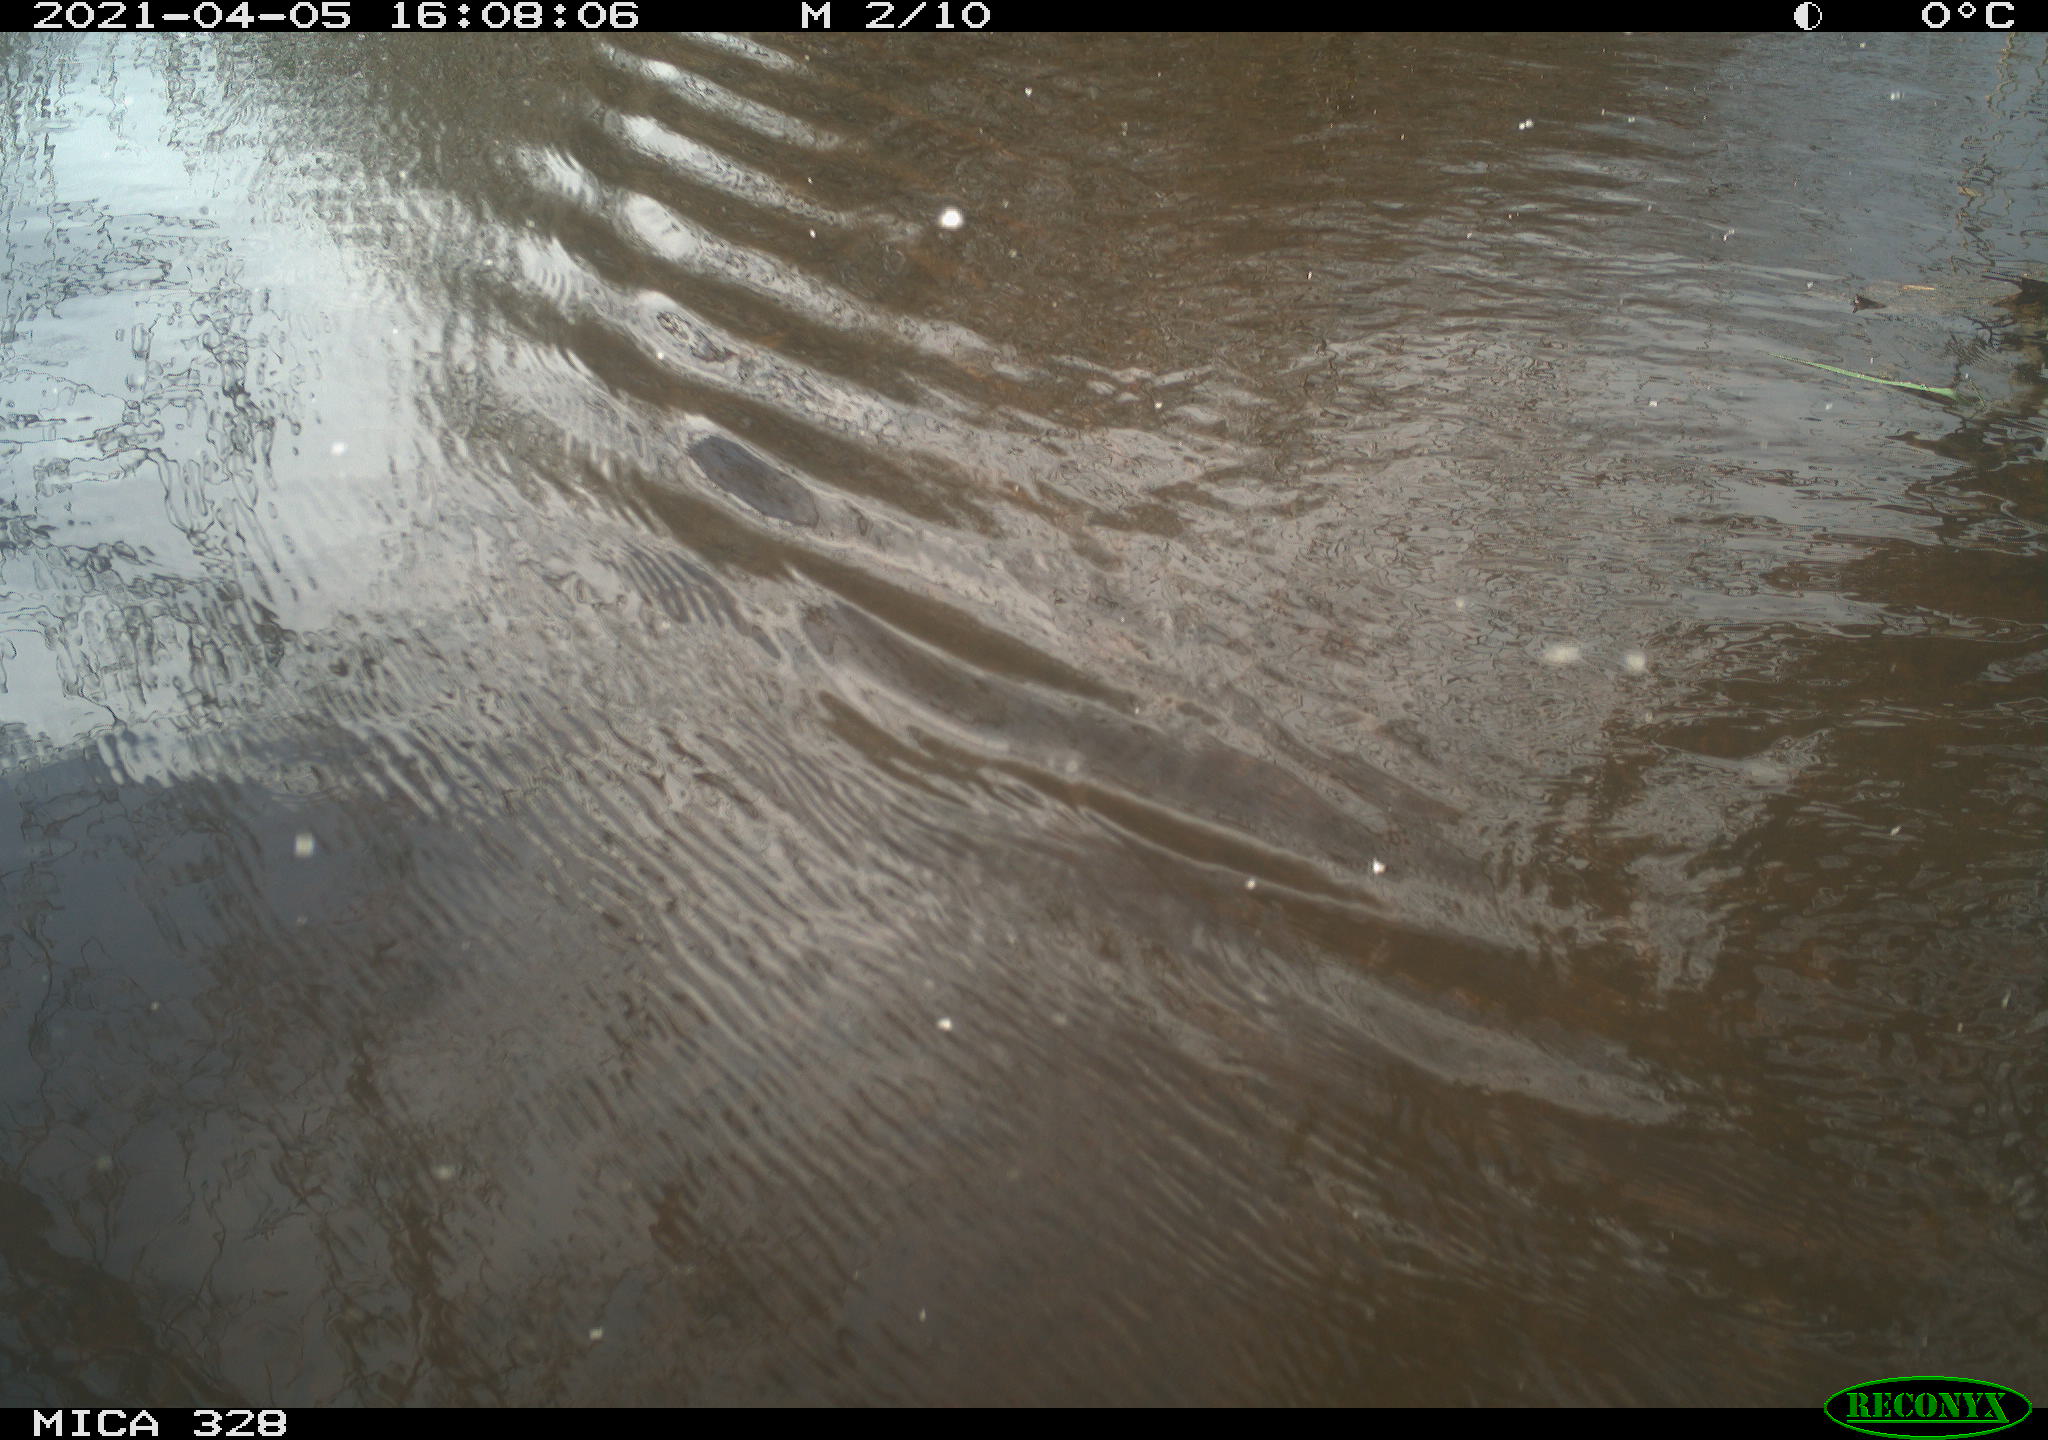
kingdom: Animalia
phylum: Chordata
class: Mammalia
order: Rodentia
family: Cricetidae
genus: Ondatra
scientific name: Ondatra zibethicus
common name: Muskrat
